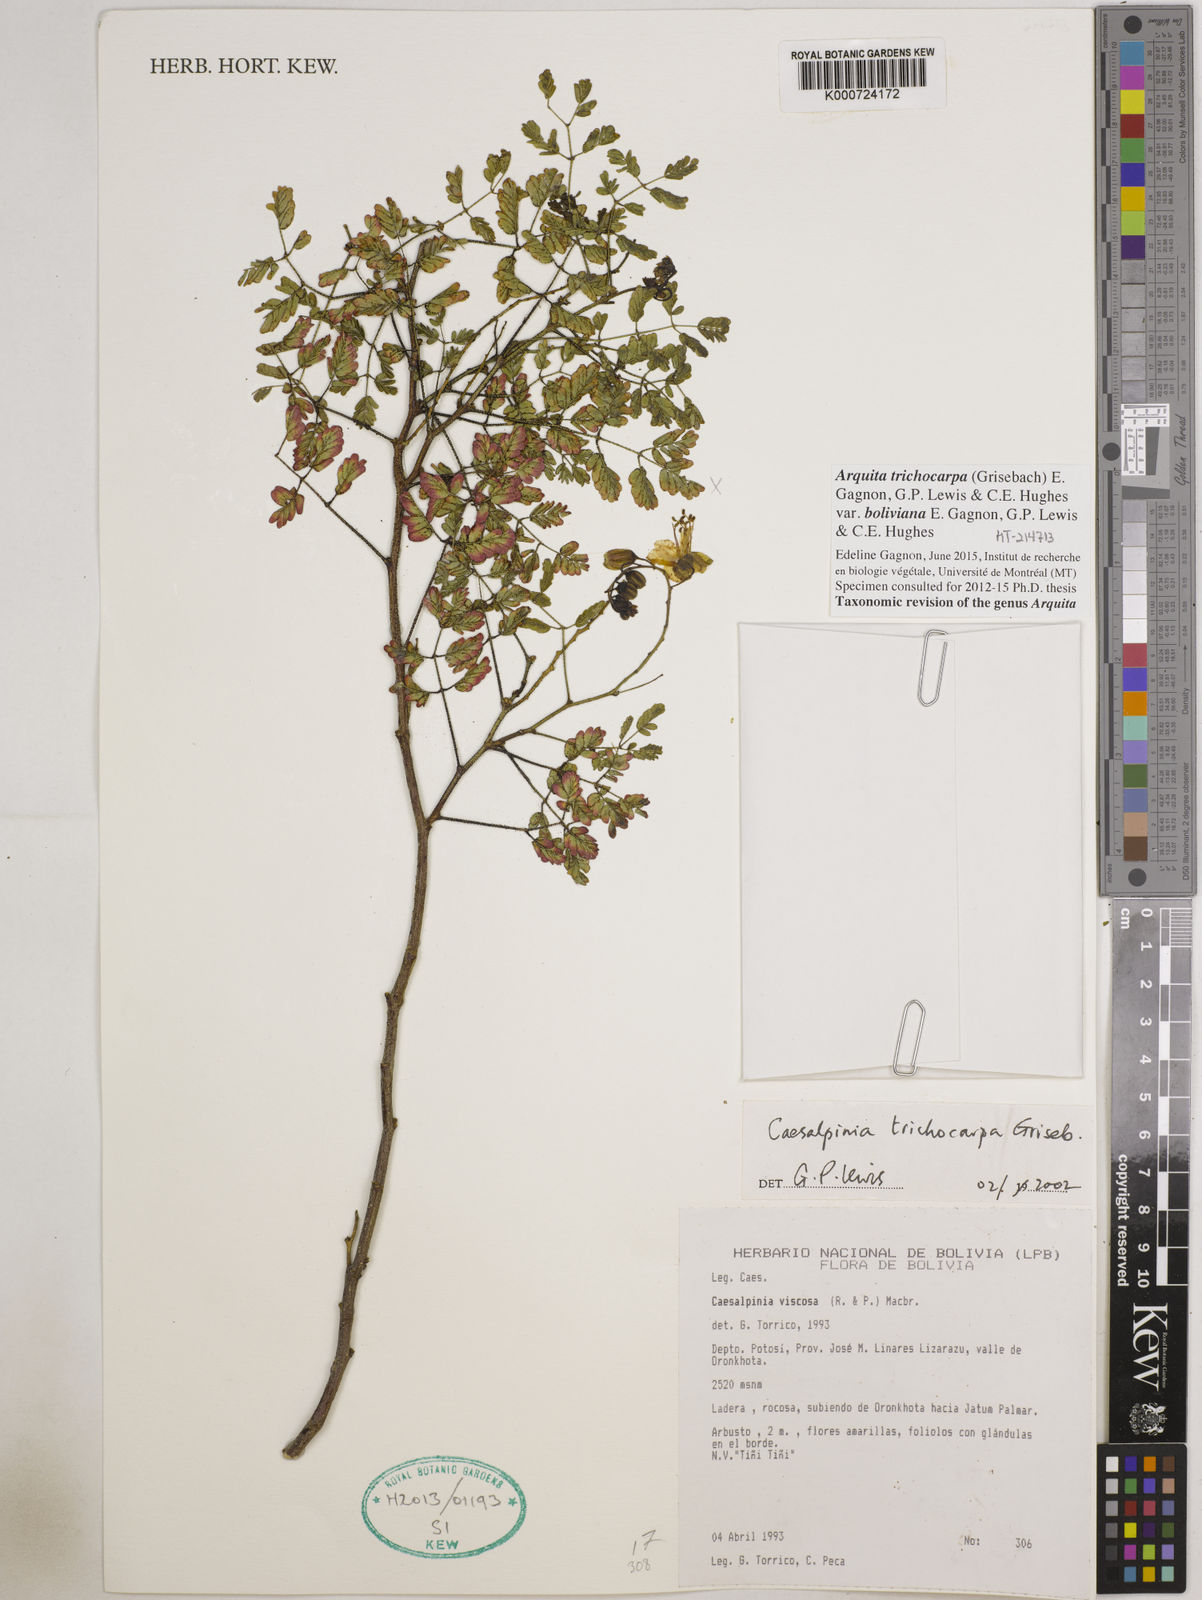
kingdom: Plantae
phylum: Tracheophyta
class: Magnoliopsida
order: Fabales
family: Fabaceae
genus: Arquita
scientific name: Arquita trichocarpa
